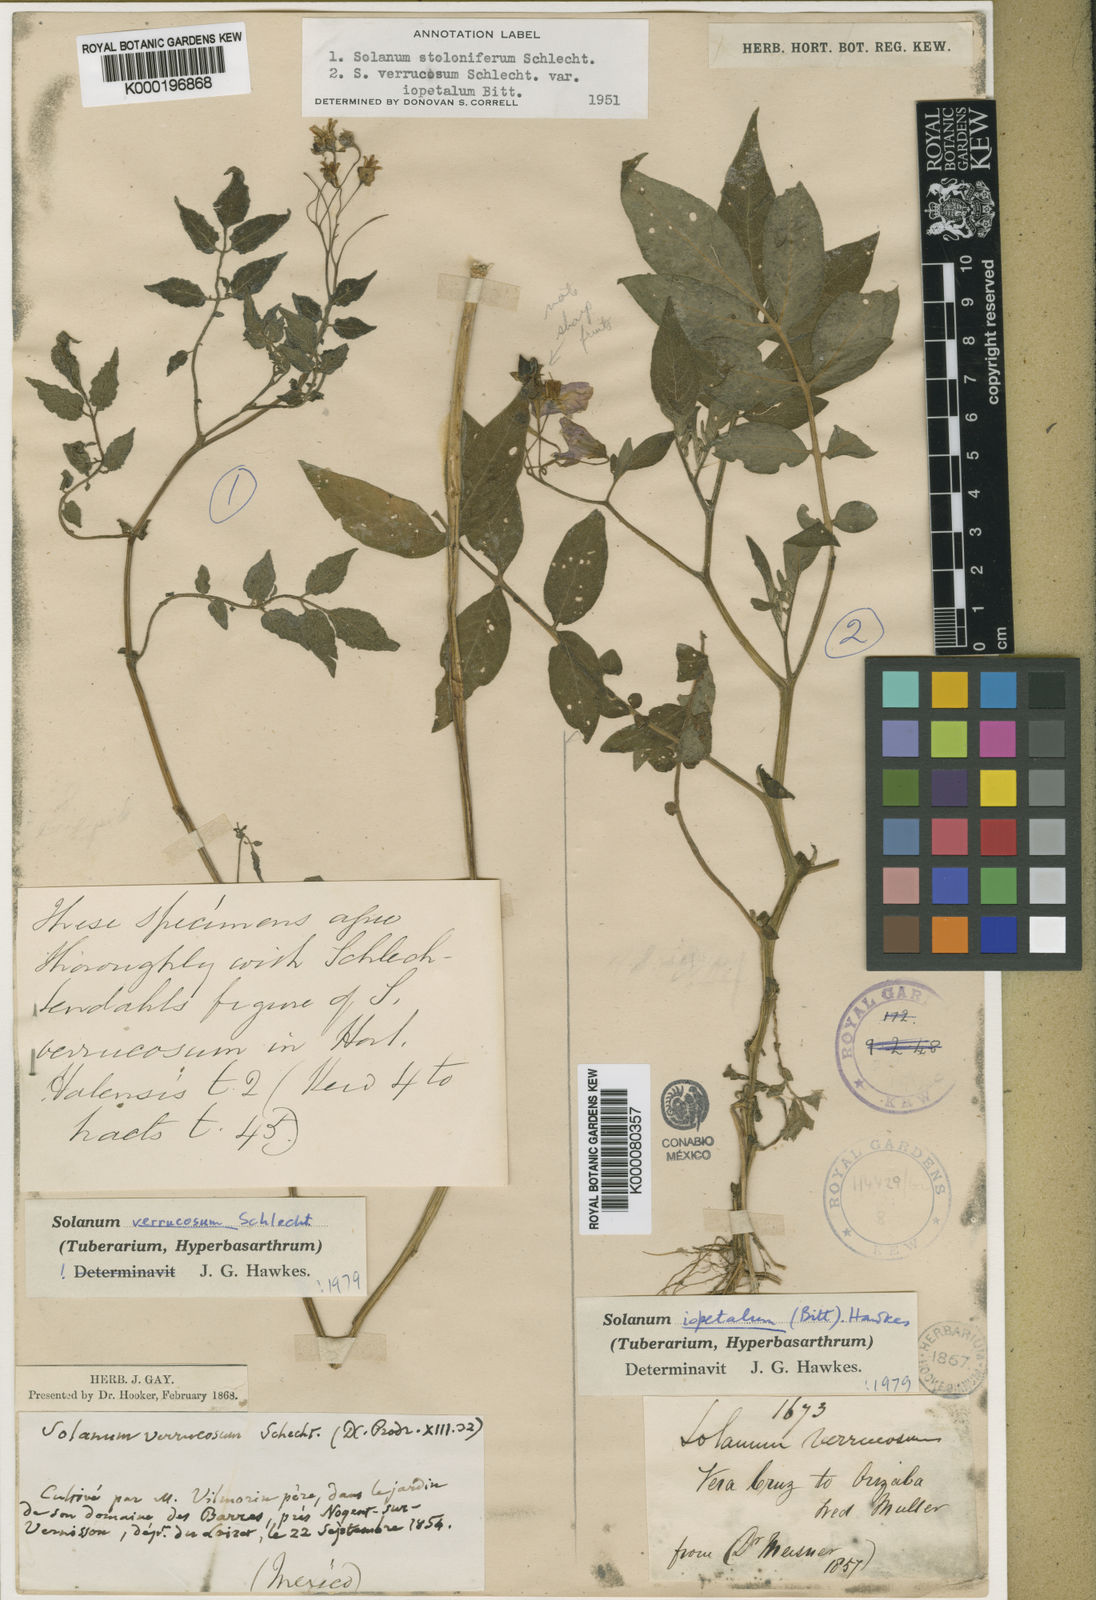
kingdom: Plantae
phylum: Tracheophyta
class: Magnoliopsida
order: Solanales
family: Solanaceae
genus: Solanum
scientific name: Solanum iopetalum
